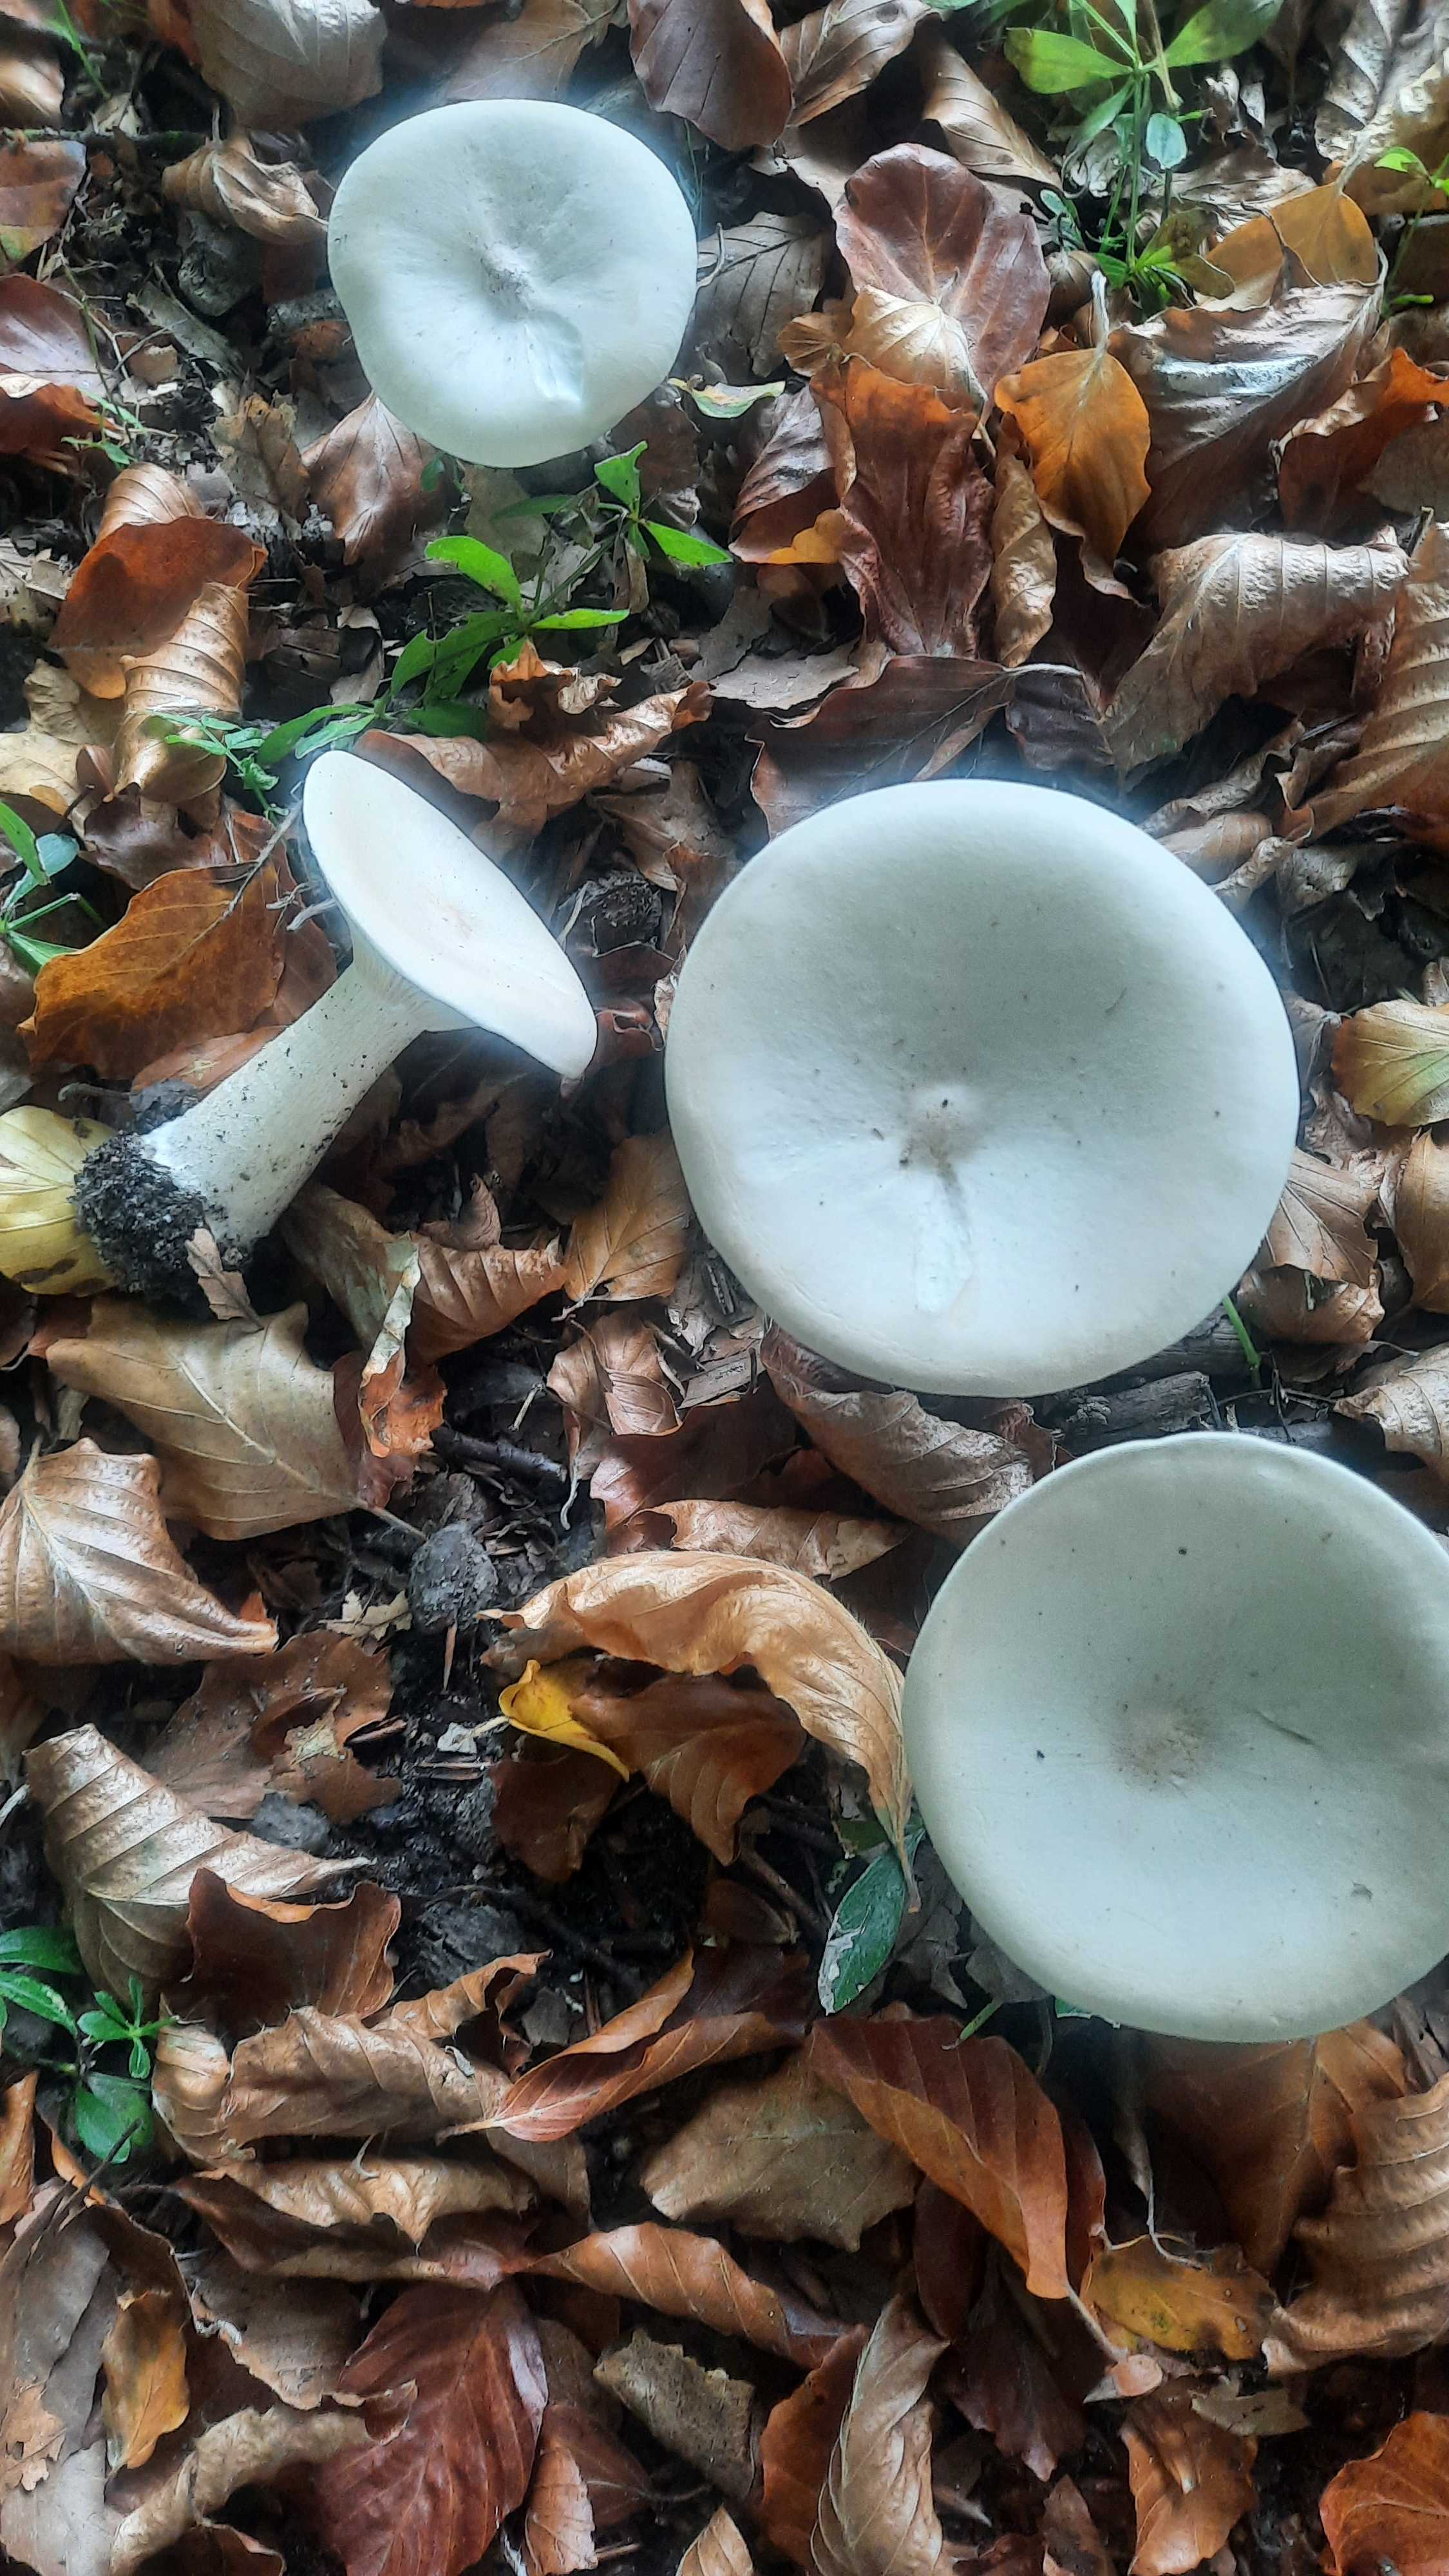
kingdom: Fungi
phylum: Basidiomycota
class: Agaricomycetes
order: Agaricales
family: Tricholomataceae
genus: Infundibulicybe
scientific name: Infundibulicybe geotropa
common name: stor tragthat
